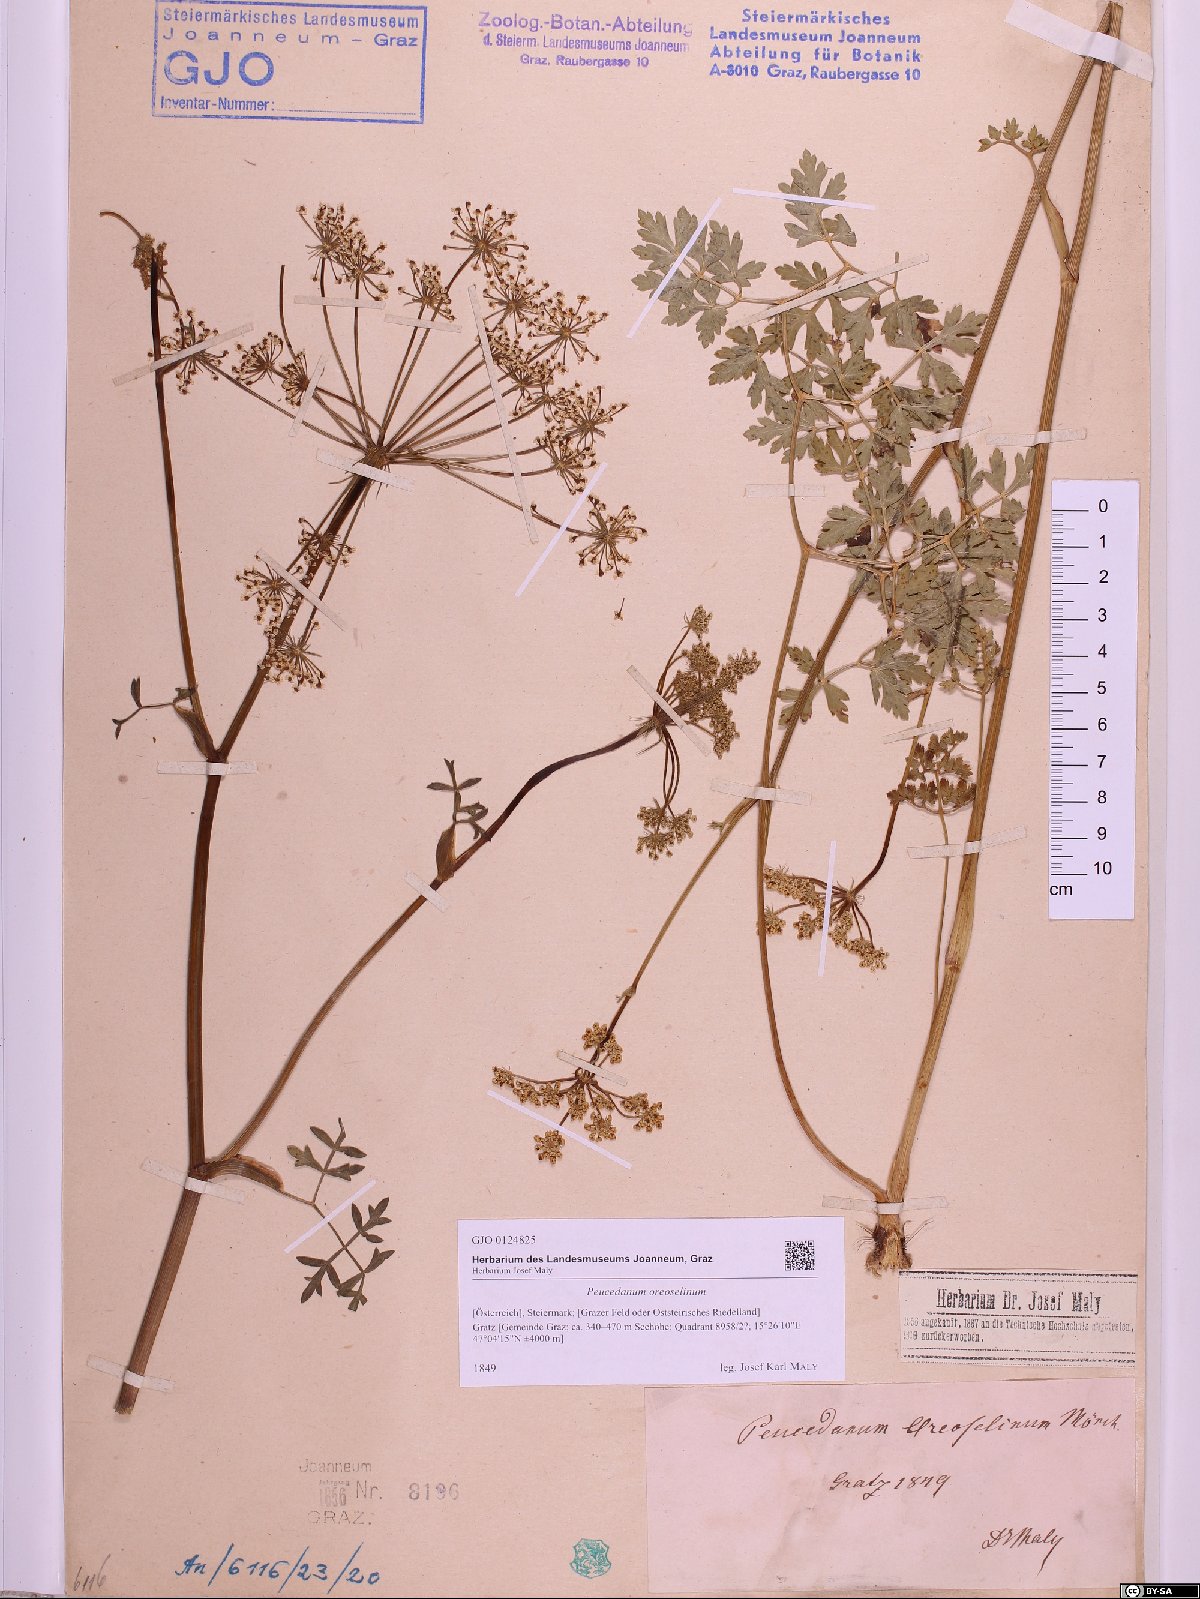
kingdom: Plantae
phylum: Tracheophyta
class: Magnoliopsida
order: Apiales
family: Apiaceae
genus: Oreoselinum
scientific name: Oreoselinum nigrum
